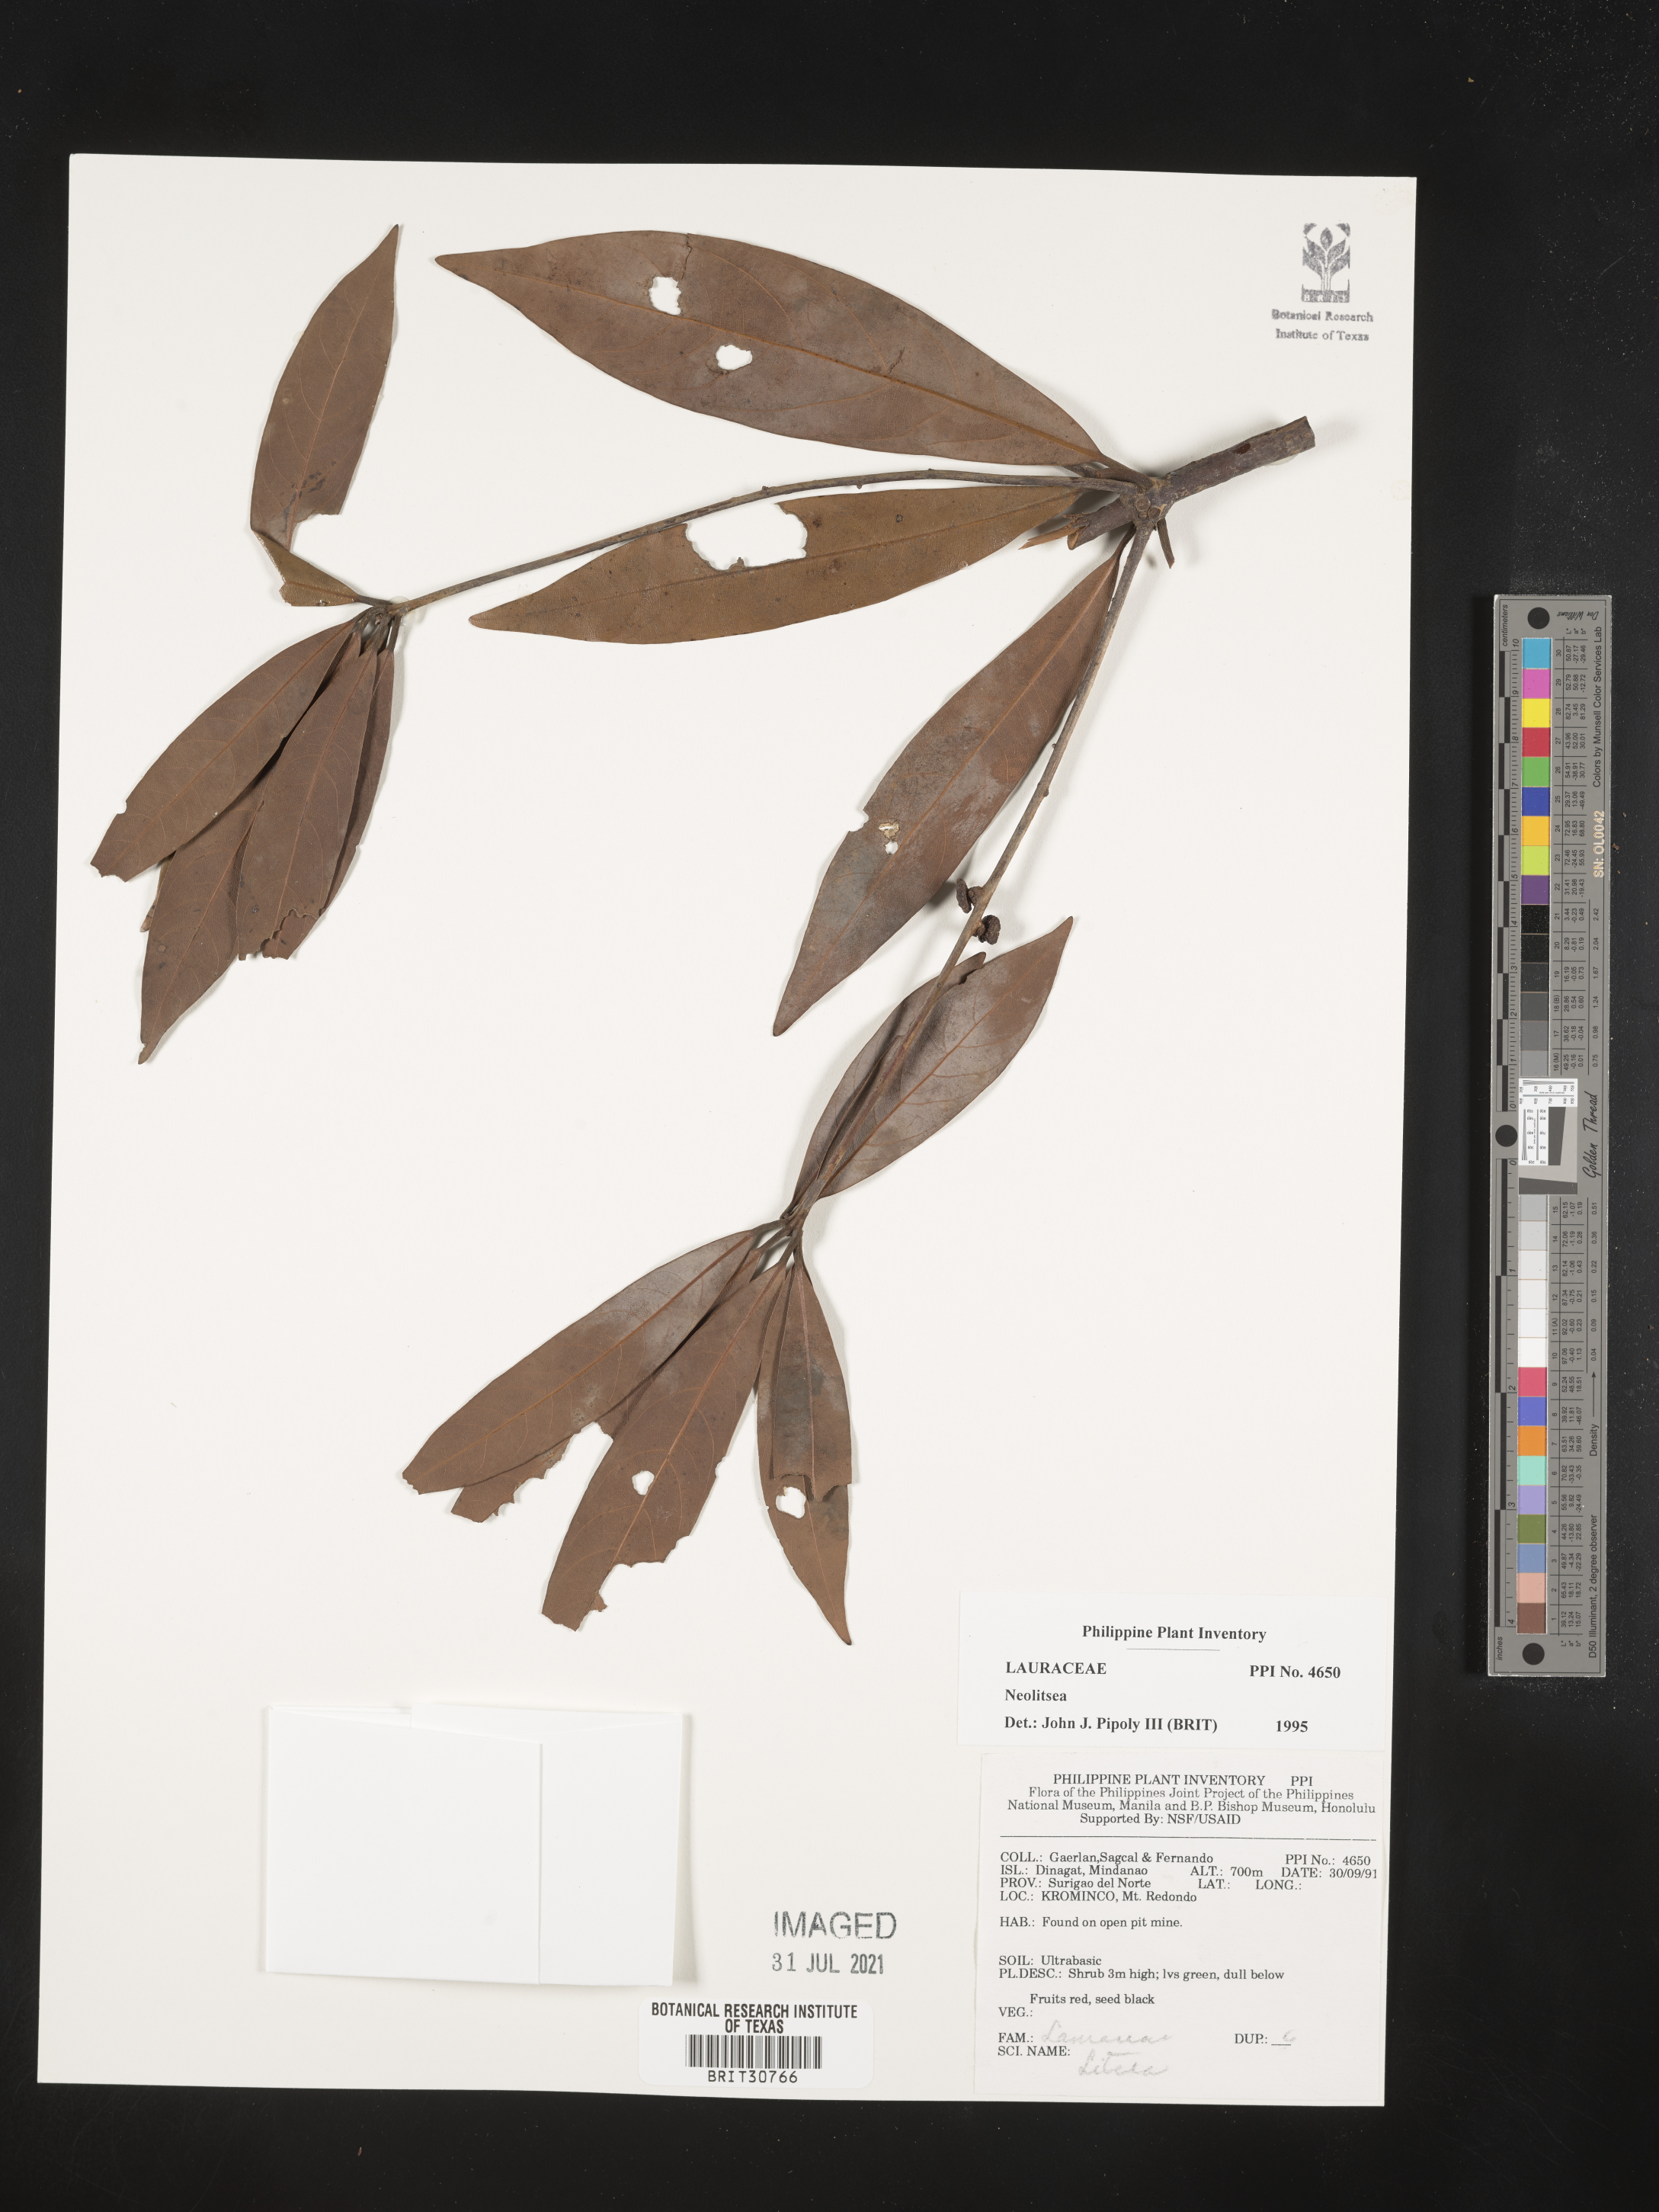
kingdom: Plantae
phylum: Tracheophyta
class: Magnoliopsida
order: Laurales
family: Lauraceae
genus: Neolitsea
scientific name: Neolitsea
